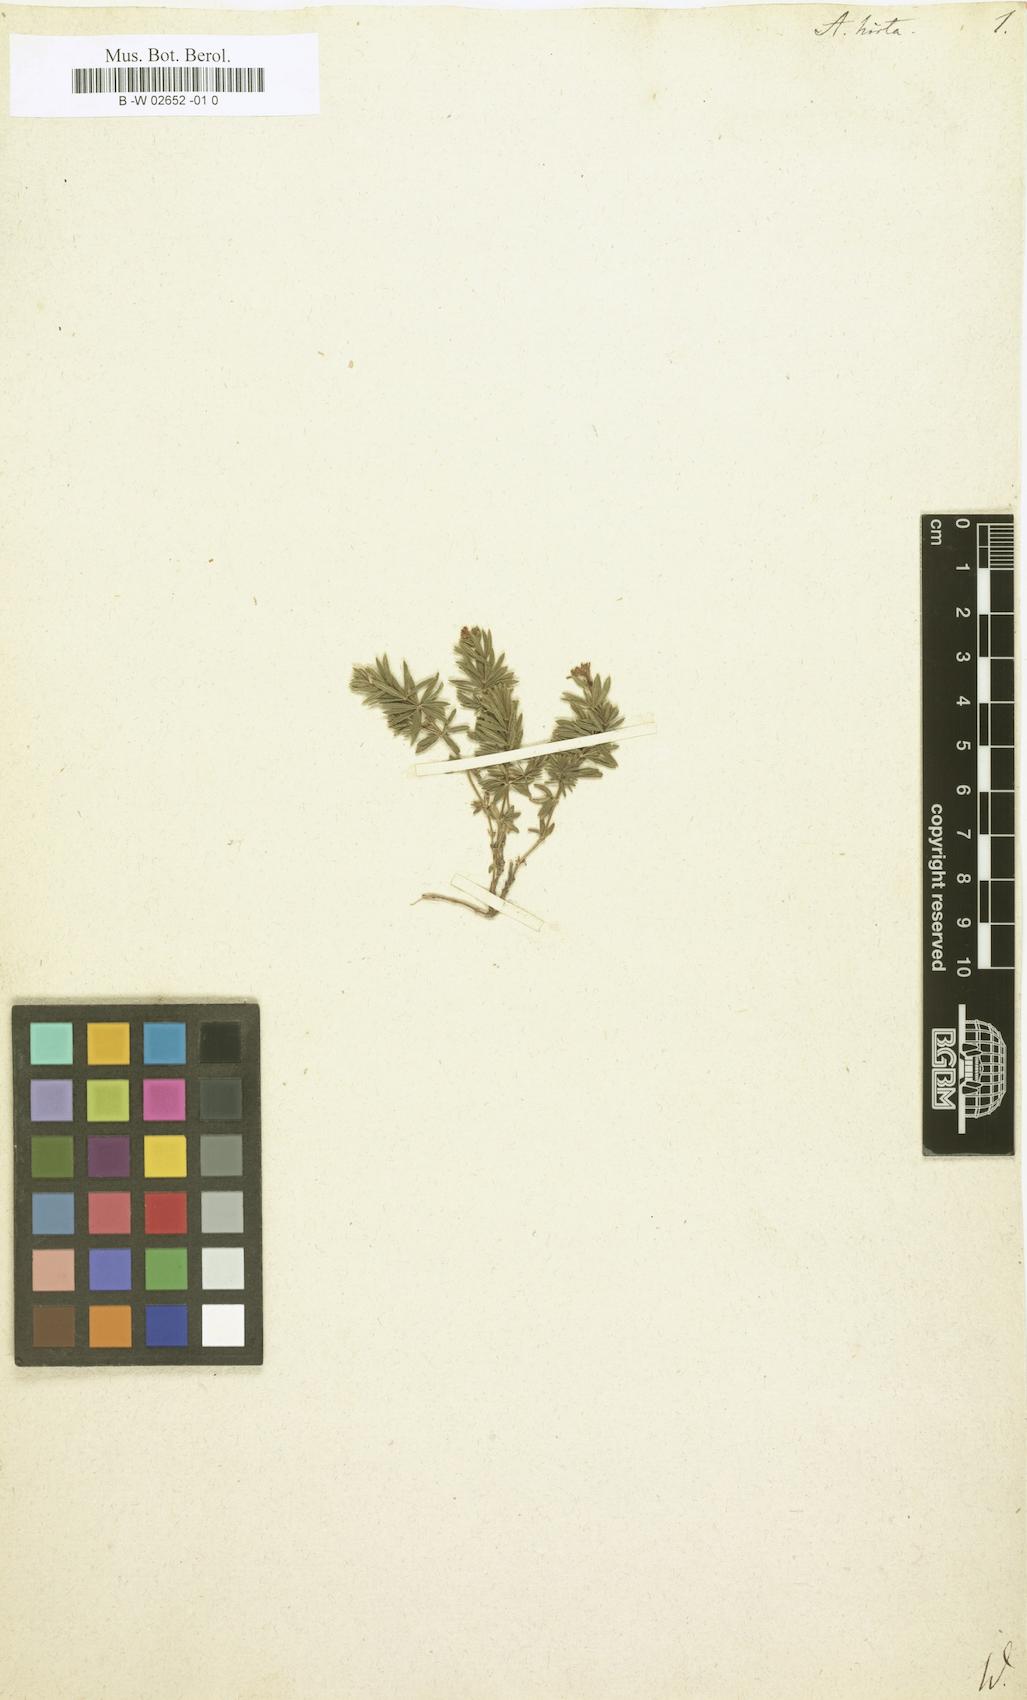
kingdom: Plantae
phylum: Tracheophyta
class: Magnoliopsida
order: Gentianales
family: Rubiaceae
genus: Hexaphylla
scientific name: Hexaphylla hirta
